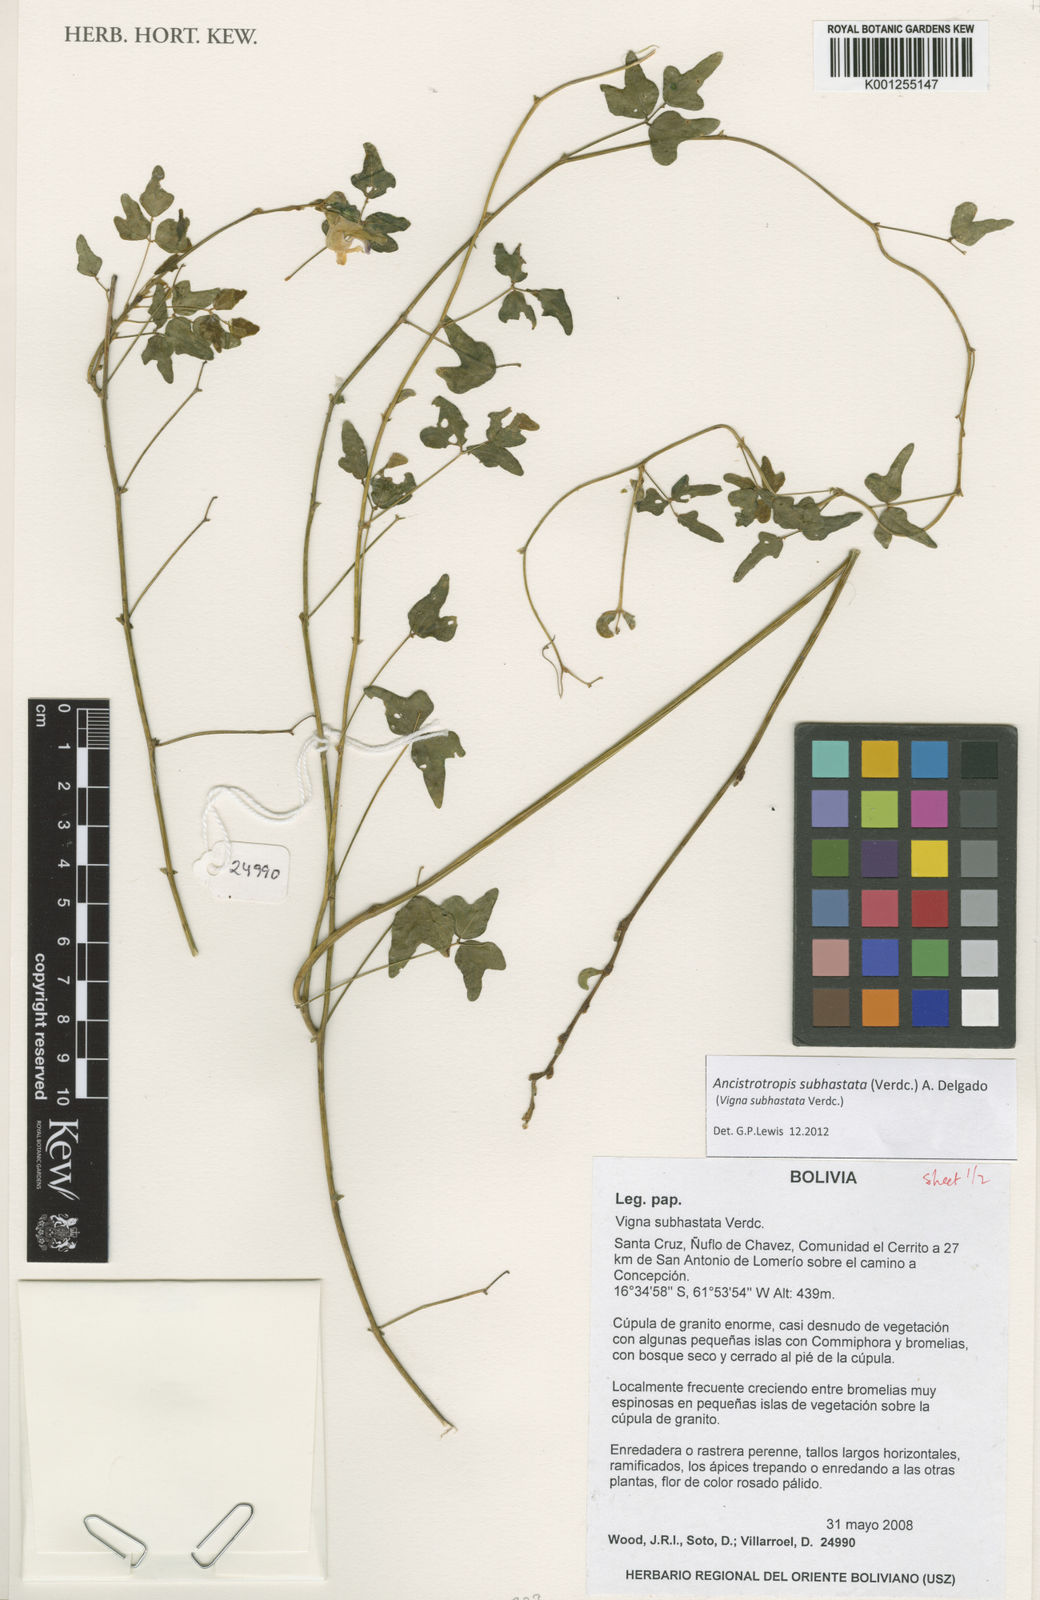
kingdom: Plantae
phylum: Tracheophyta
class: Magnoliopsida
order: Fabales
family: Fabaceae
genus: Ancistrotropis
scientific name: Ancistrotropis subhastata
